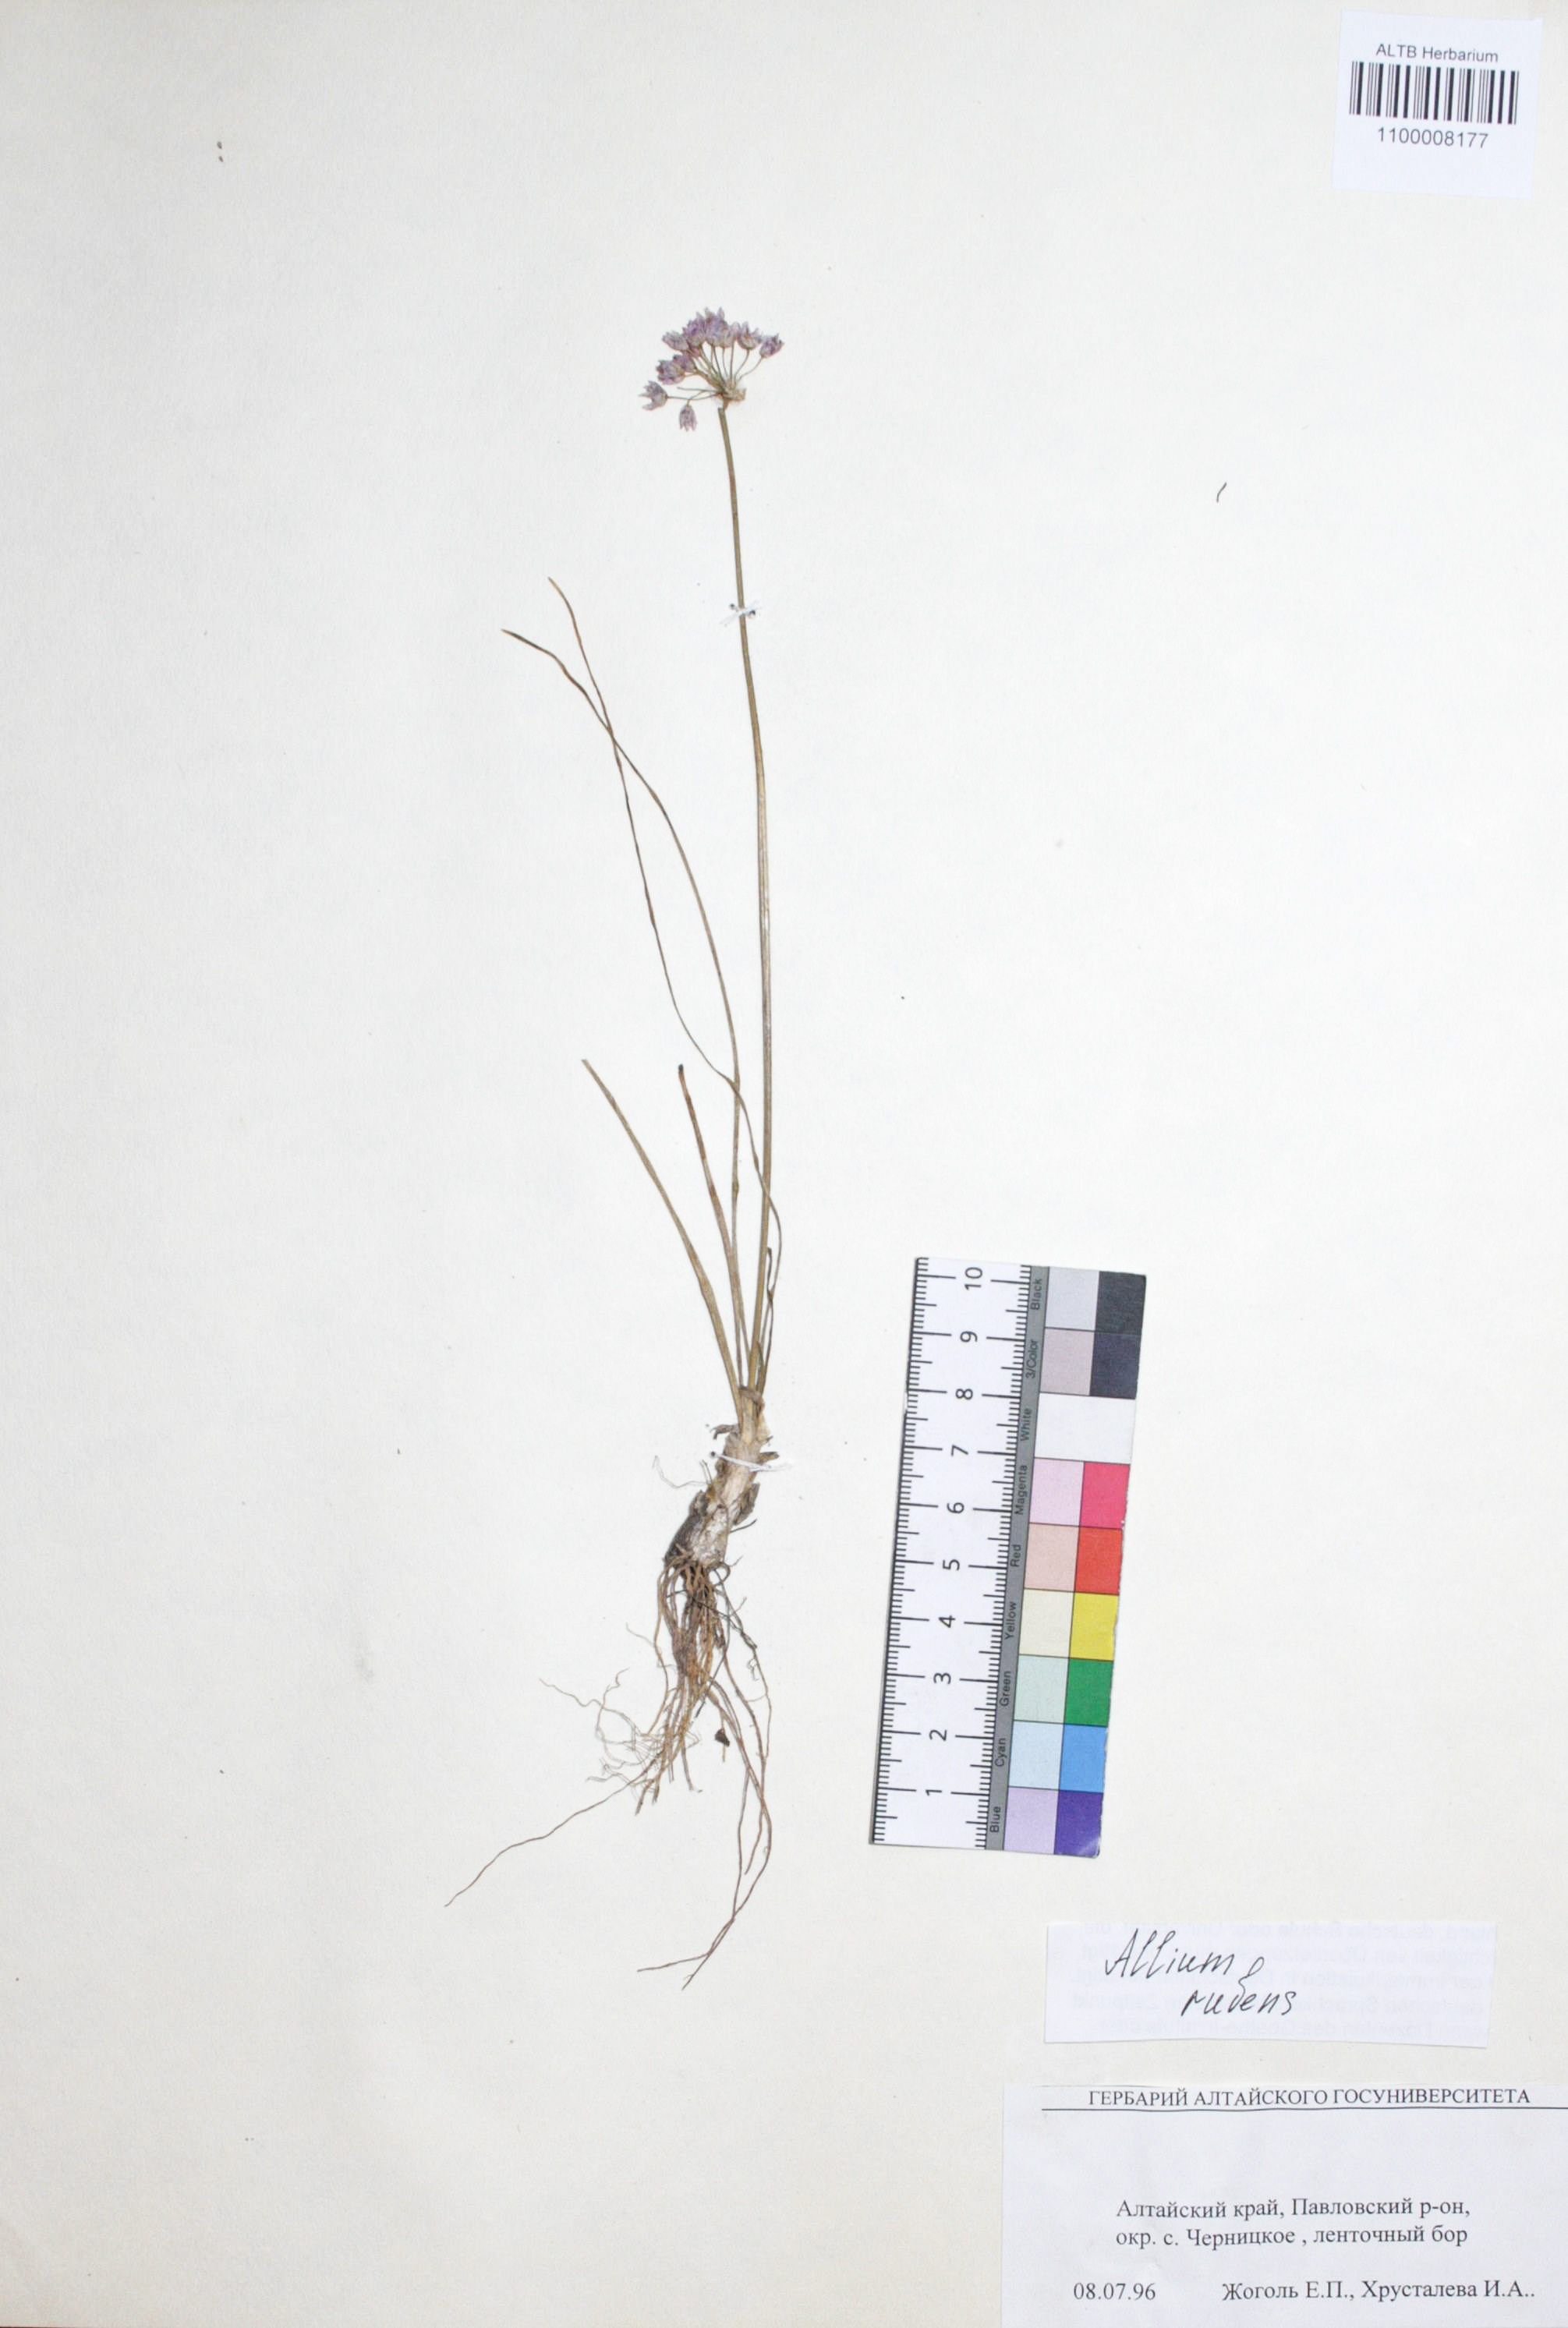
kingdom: Plantae
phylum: Tracheophyta
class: Liliopsida
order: Asparagales
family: Amaryllidaceae
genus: Allium
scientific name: Allium rubens
